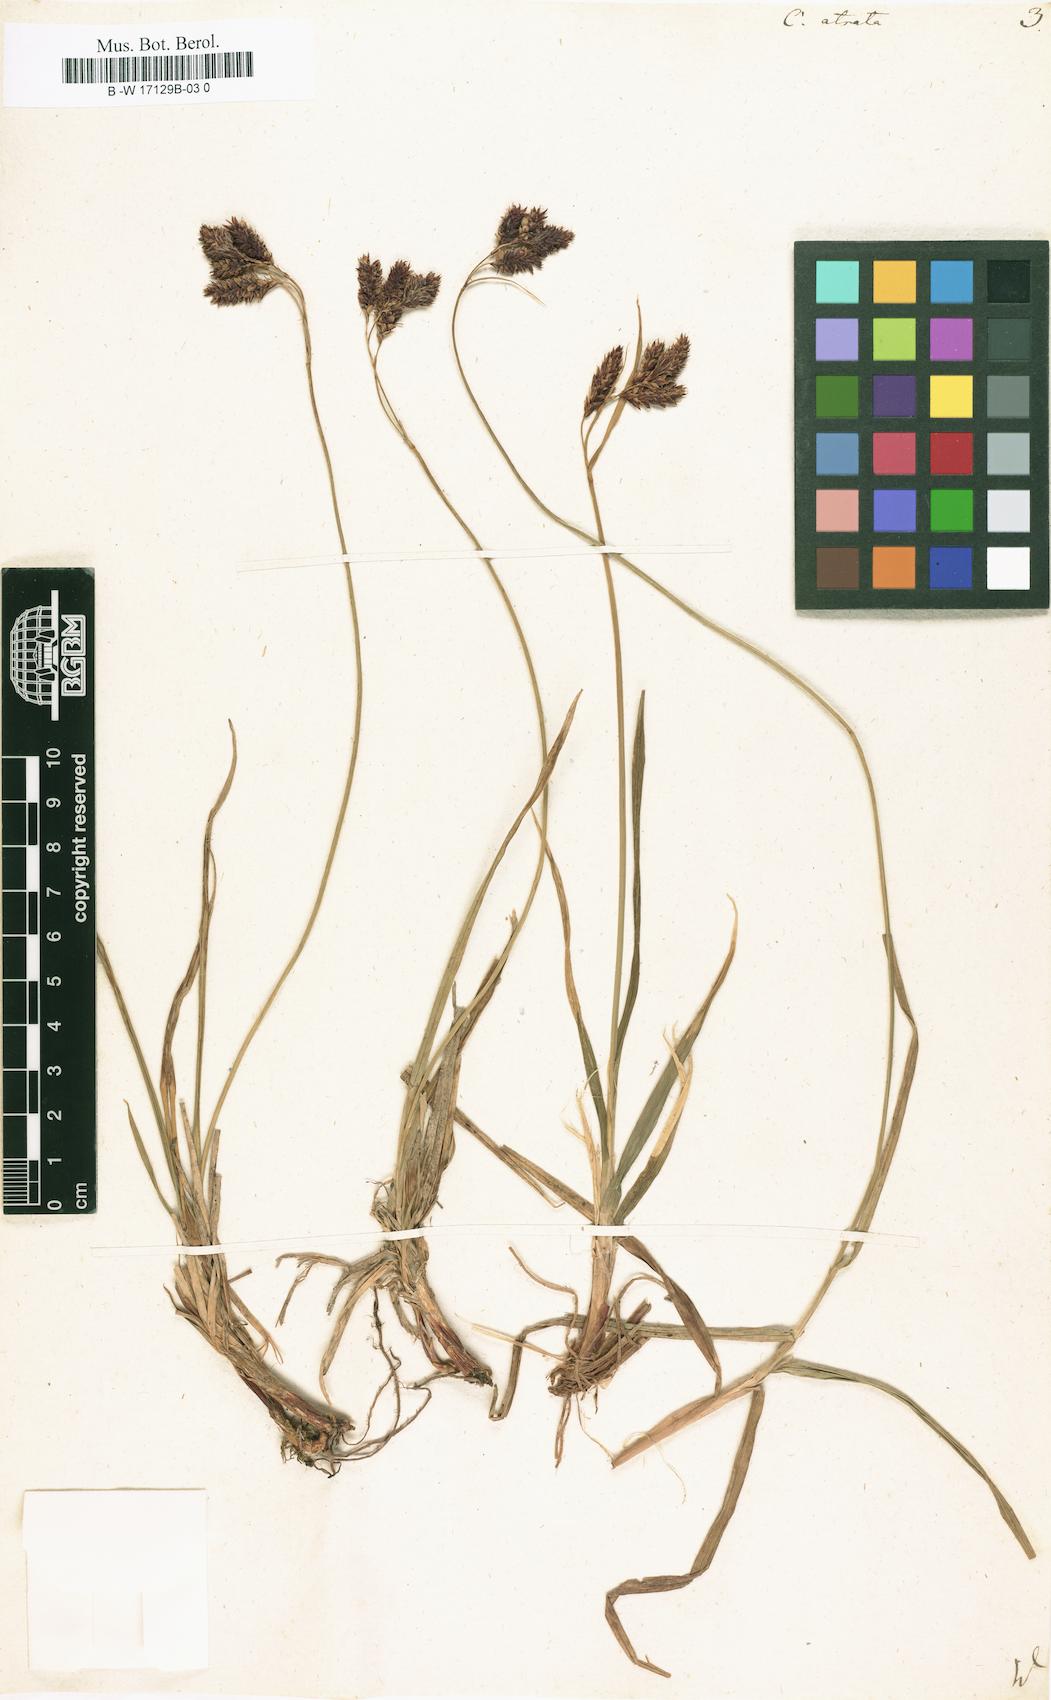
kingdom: Plantae
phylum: Tracheophyta
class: Liliopsida
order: Poales
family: Cyperaceae
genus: Carex
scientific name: Carex atrata
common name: Black alpine sedge
